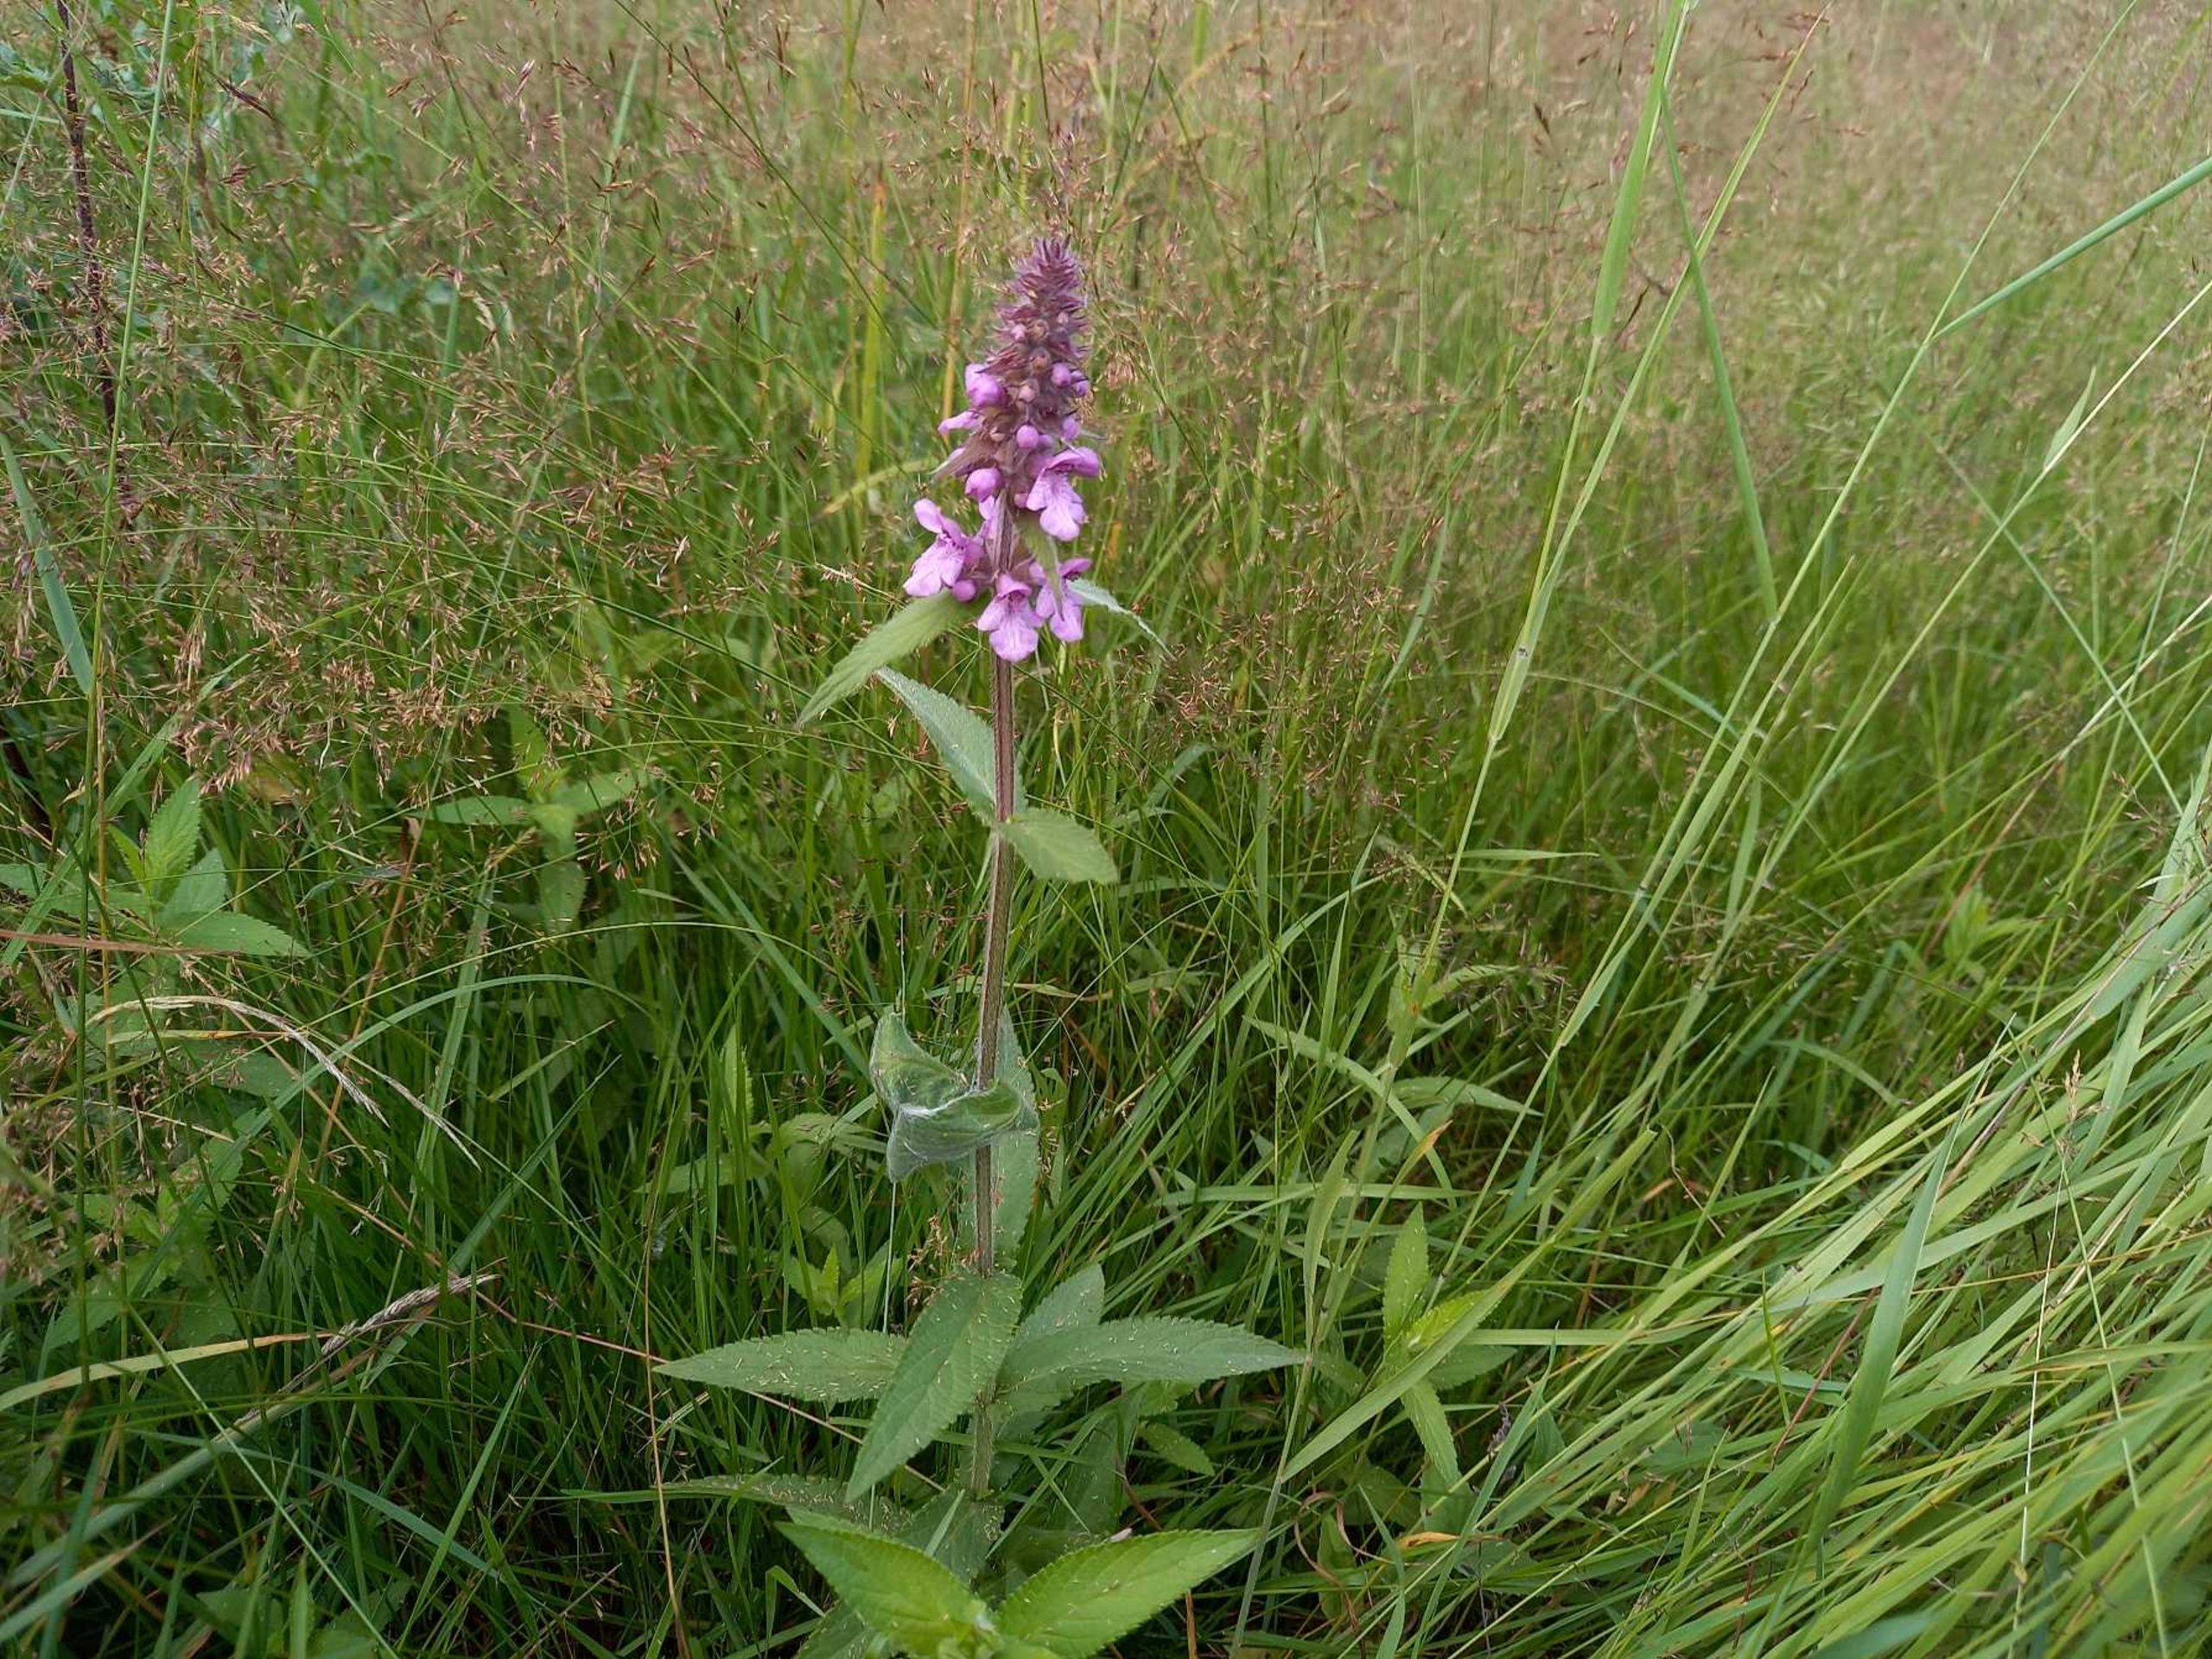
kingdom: Plantae
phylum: Tracheophyta
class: Magnoliopsida
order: Lamiales
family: Lamiaceae
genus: Stachys
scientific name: Stachys palustris
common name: Kær-galtetand
